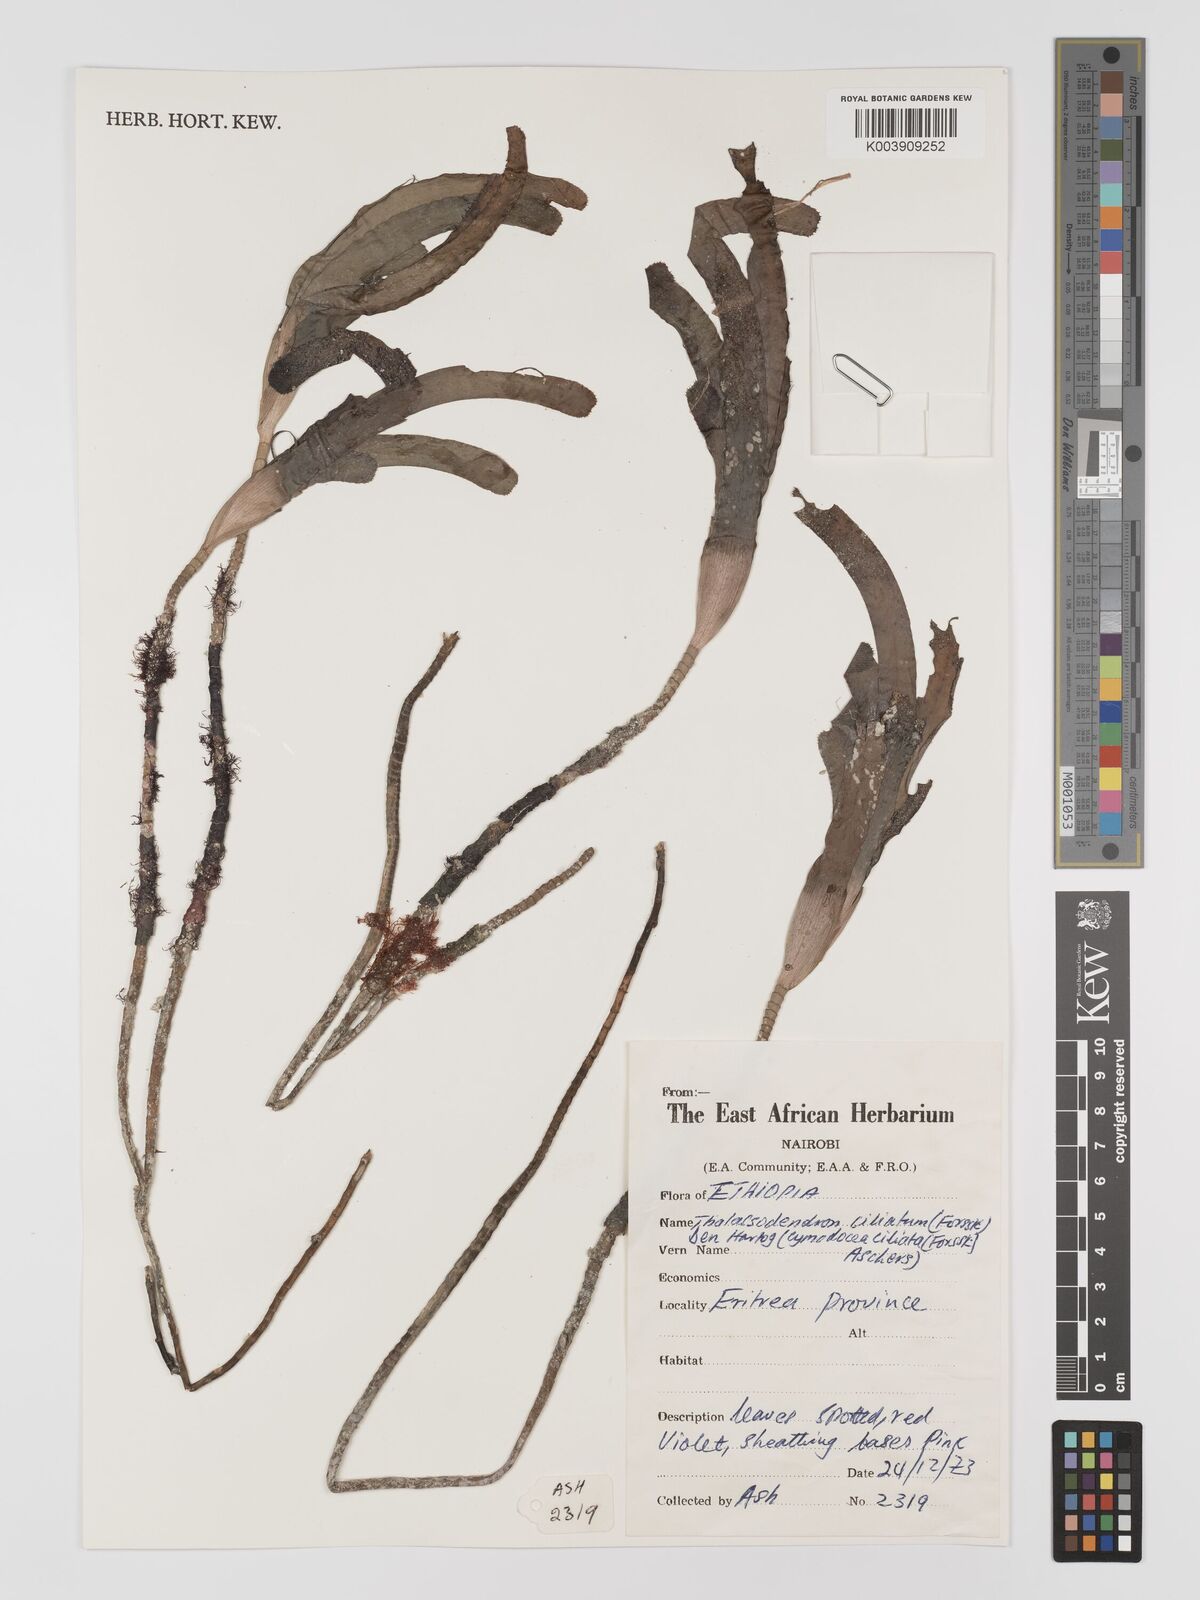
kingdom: Plantae
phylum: Tracheophyta
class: Liliopsida
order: Alismatales
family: Cymodoceaceae
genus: Thalassodendron
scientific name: Thalassodendron ciliatum
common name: Species code: tc
